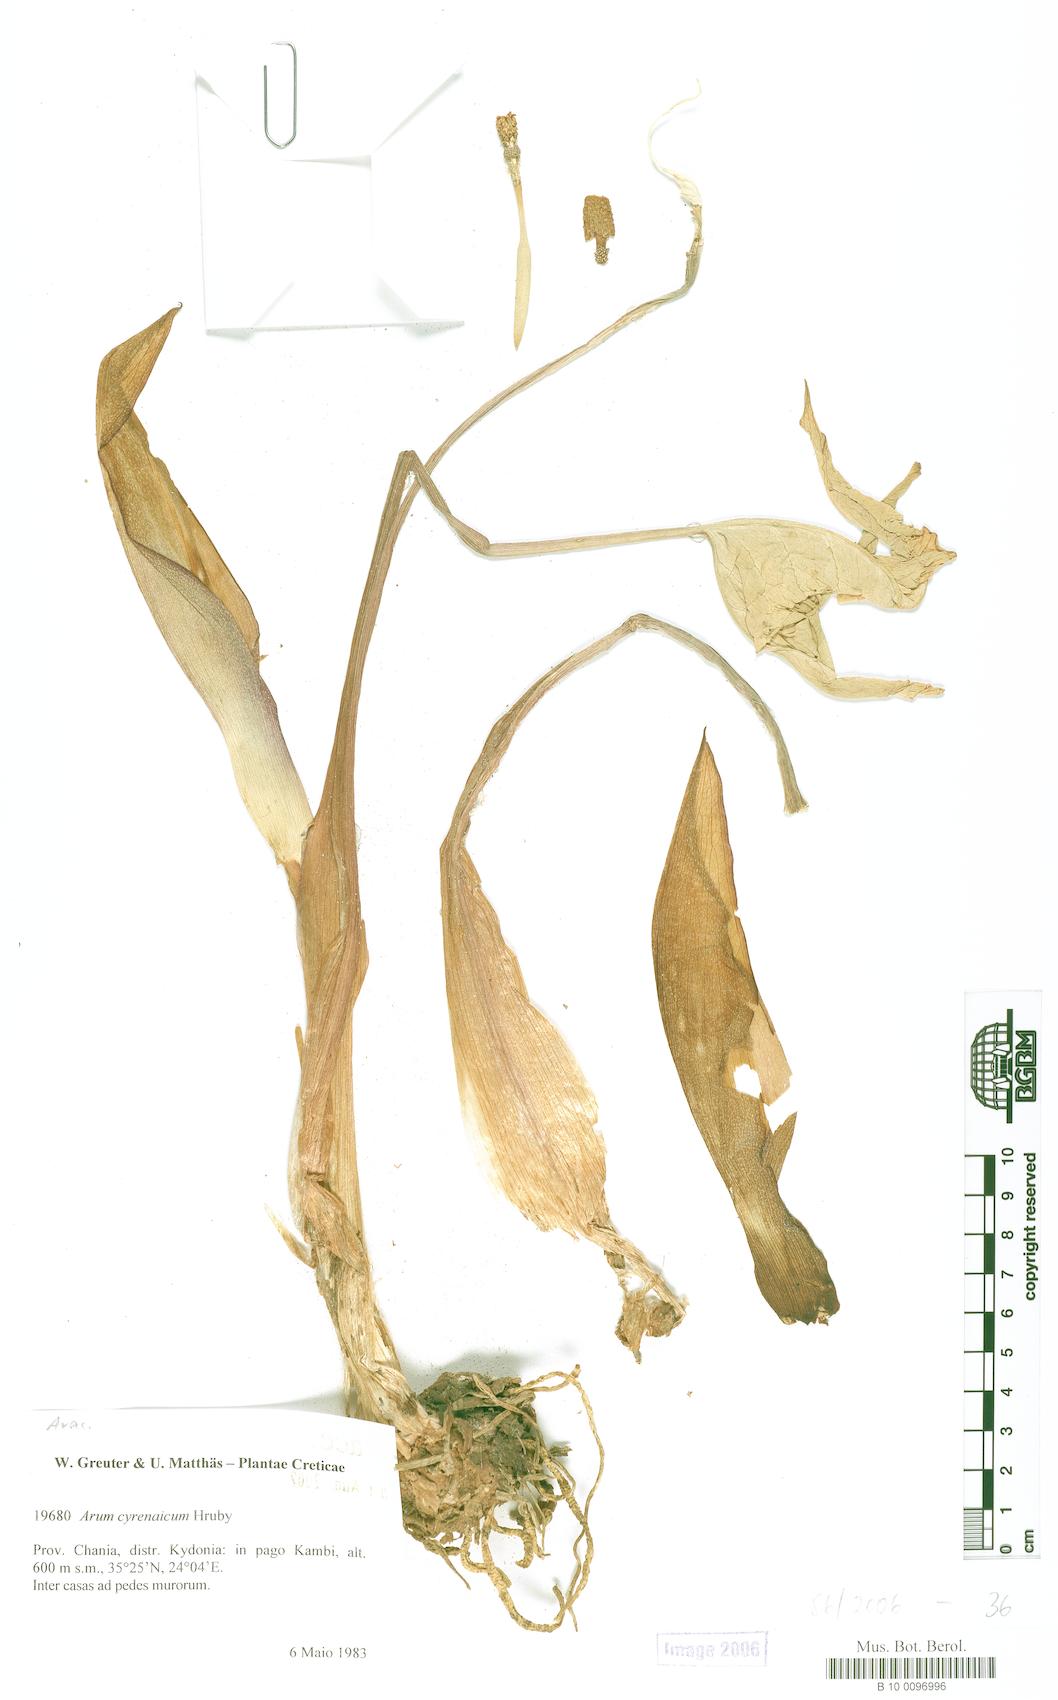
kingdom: Plantae
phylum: Tracheophyta
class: Liliopsida
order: Alismatales
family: Araceae
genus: Arum
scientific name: Arum cyrenaicum
